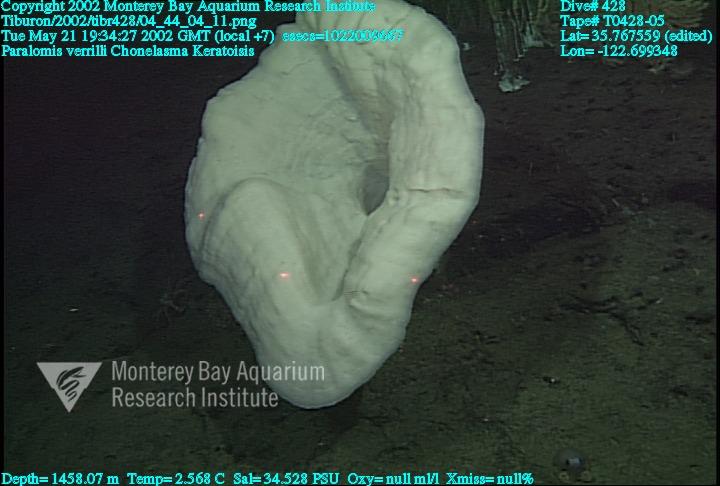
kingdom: Animalia
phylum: Porifera
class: Hexactinellida
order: Sceptrulophora
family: Euretidae
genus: Chonelasma
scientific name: Chonelasma
